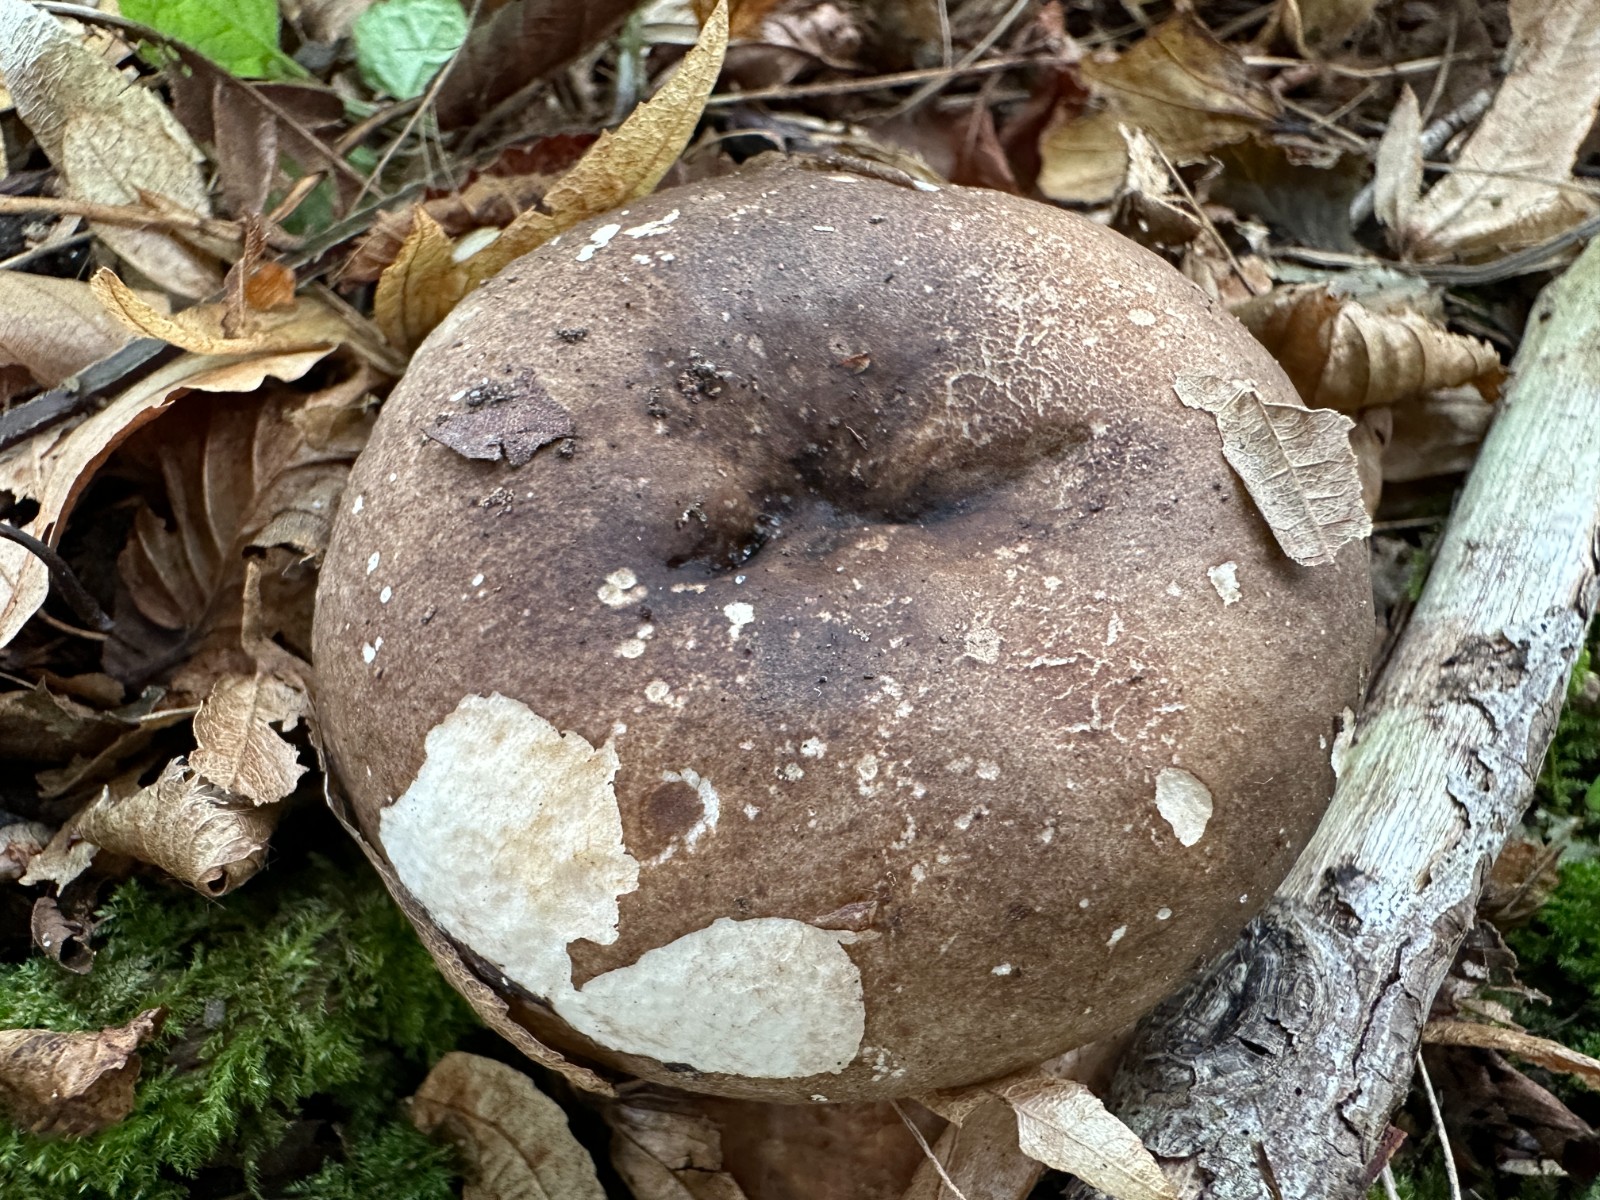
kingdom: Fungi
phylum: Basidiomycota
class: Agaricomycetes
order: Russulales
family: Russulaceae
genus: Russula
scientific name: Russula adusta
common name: sværtende skørhat
